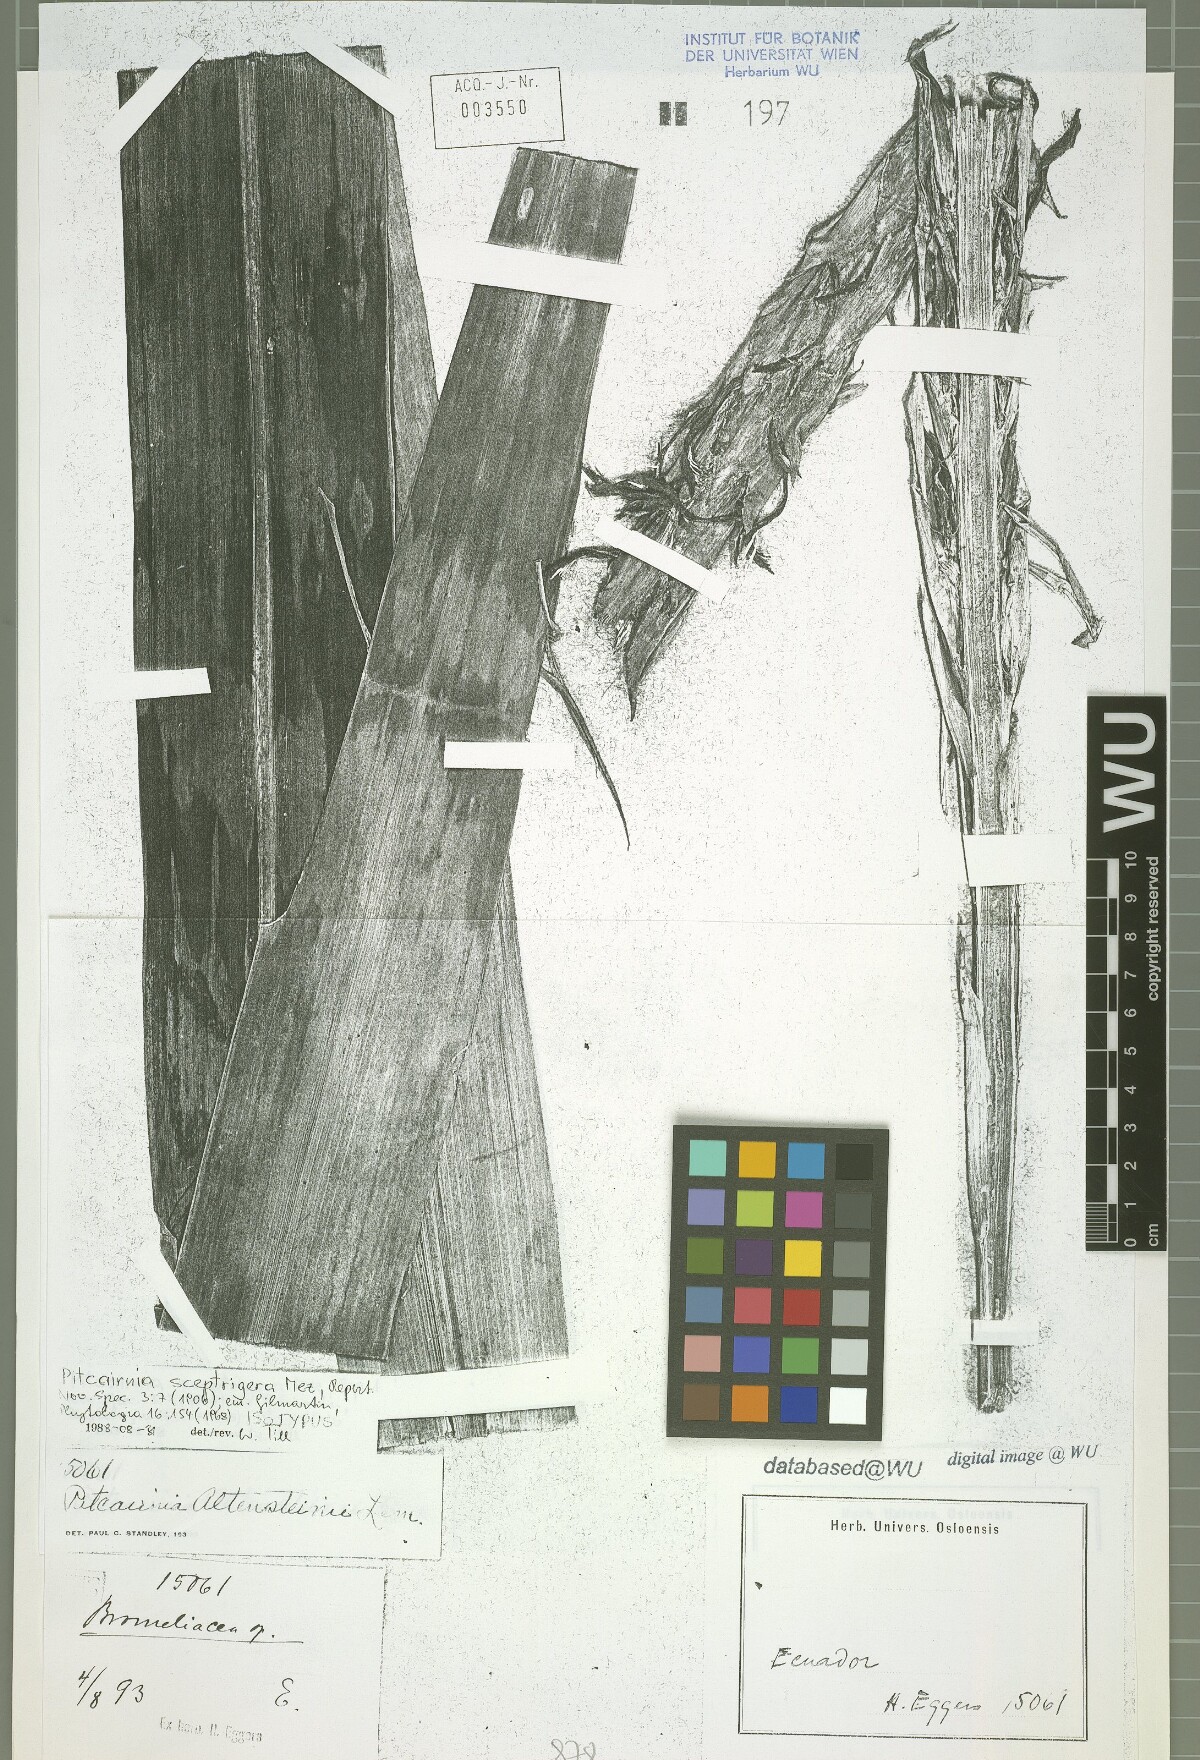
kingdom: Plantae
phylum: Tracheophyta
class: Liliopsida
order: Poales
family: Bromeliaceae
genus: Pitcairnia
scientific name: Pitcairnia sceptrigera
